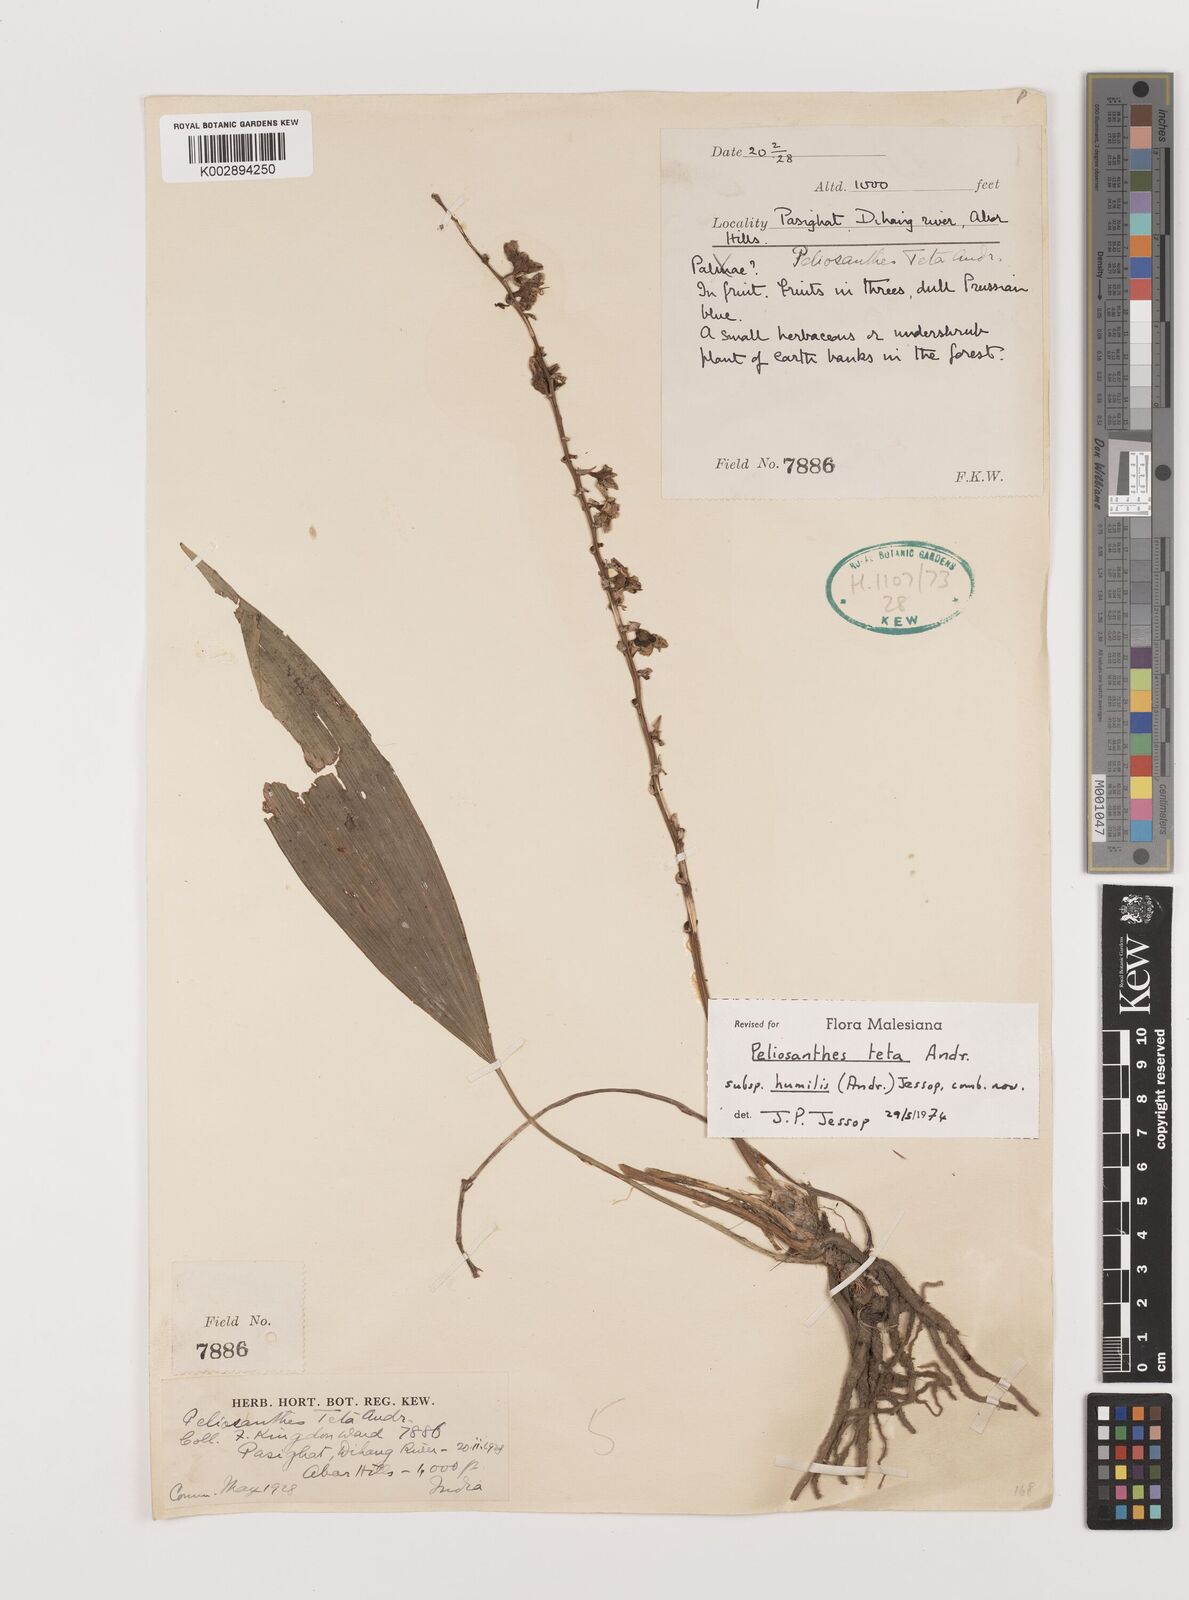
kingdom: Plantae
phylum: Tracheophyta
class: Liliopsida
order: Asparagales
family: Asparagaceae
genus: Peliosanthes
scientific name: Peliosanthes teta
